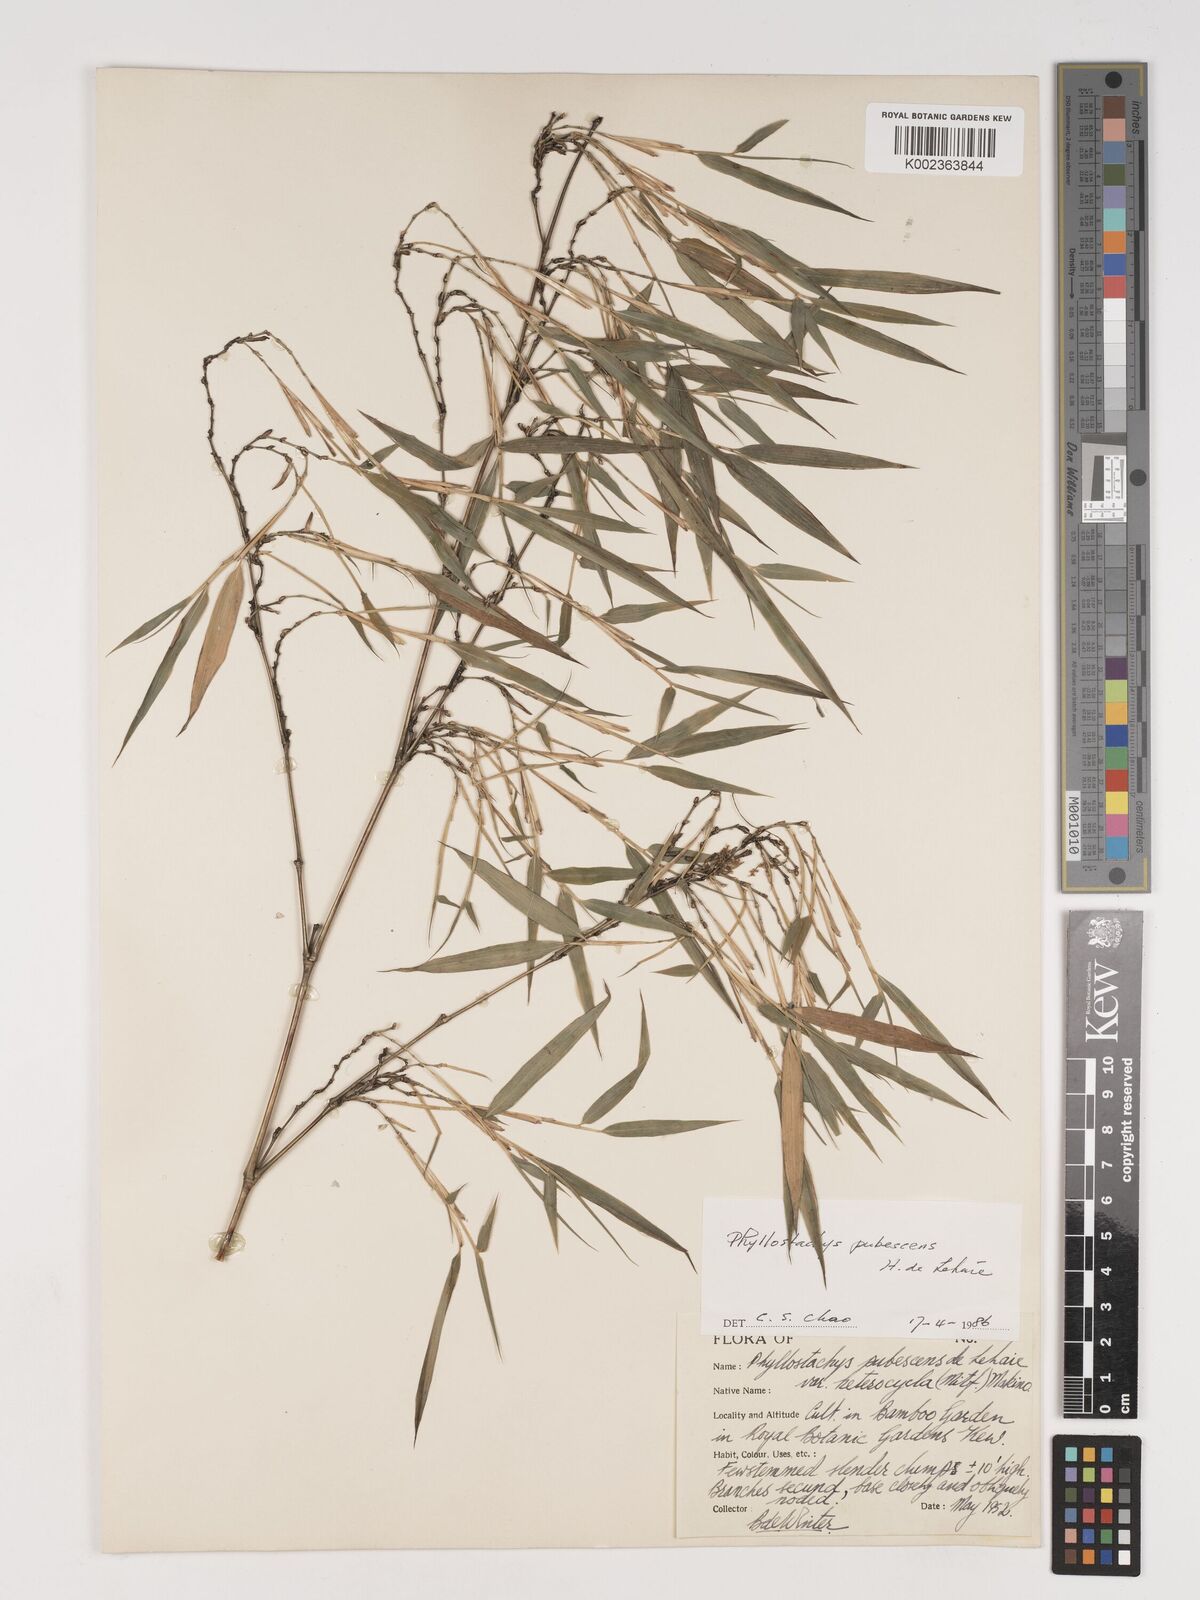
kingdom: Plantae
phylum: Tracheophyta
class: Liliopsida
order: Poales
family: Poaceae
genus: Phyllostachys
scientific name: Phyllostachys edulis
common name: Tortoise shell bamboo
